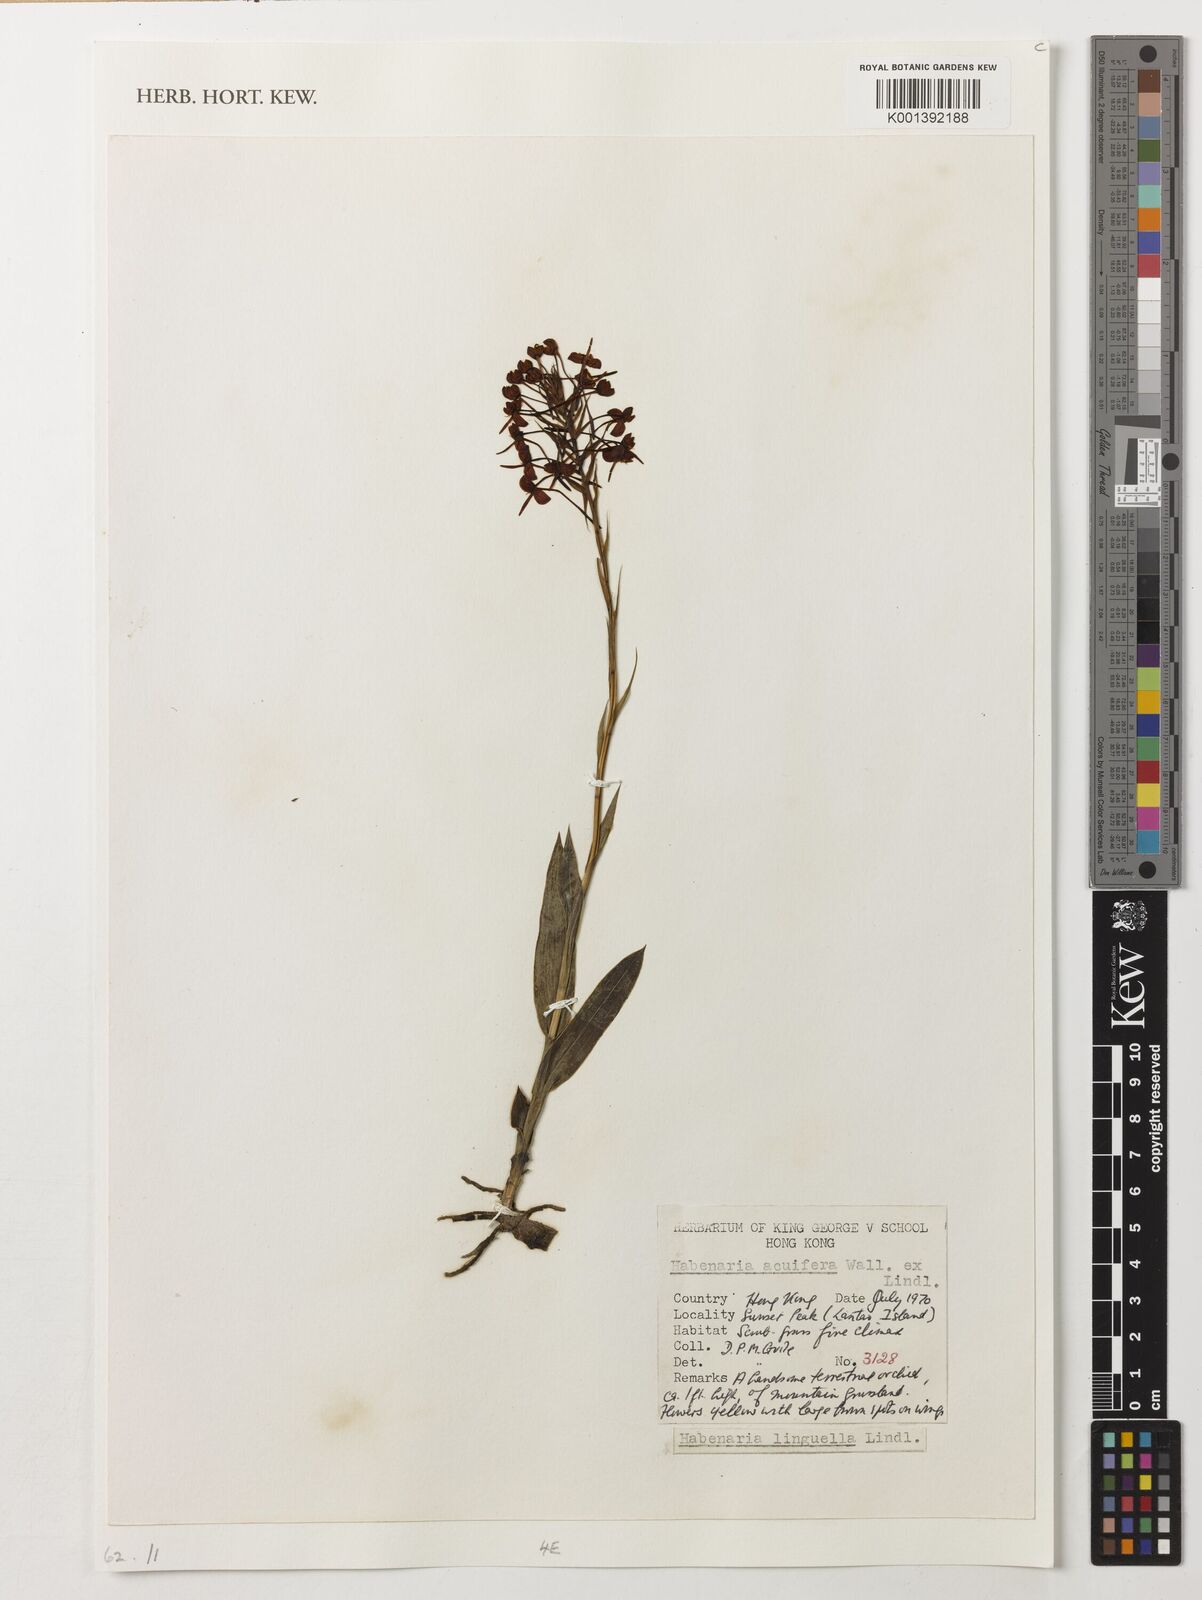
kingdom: Plantae
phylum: Tracheophyta
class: Liliopsida
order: Asparagales
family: Orchidaceae
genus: Habenaria
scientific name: Habenaria linguella
